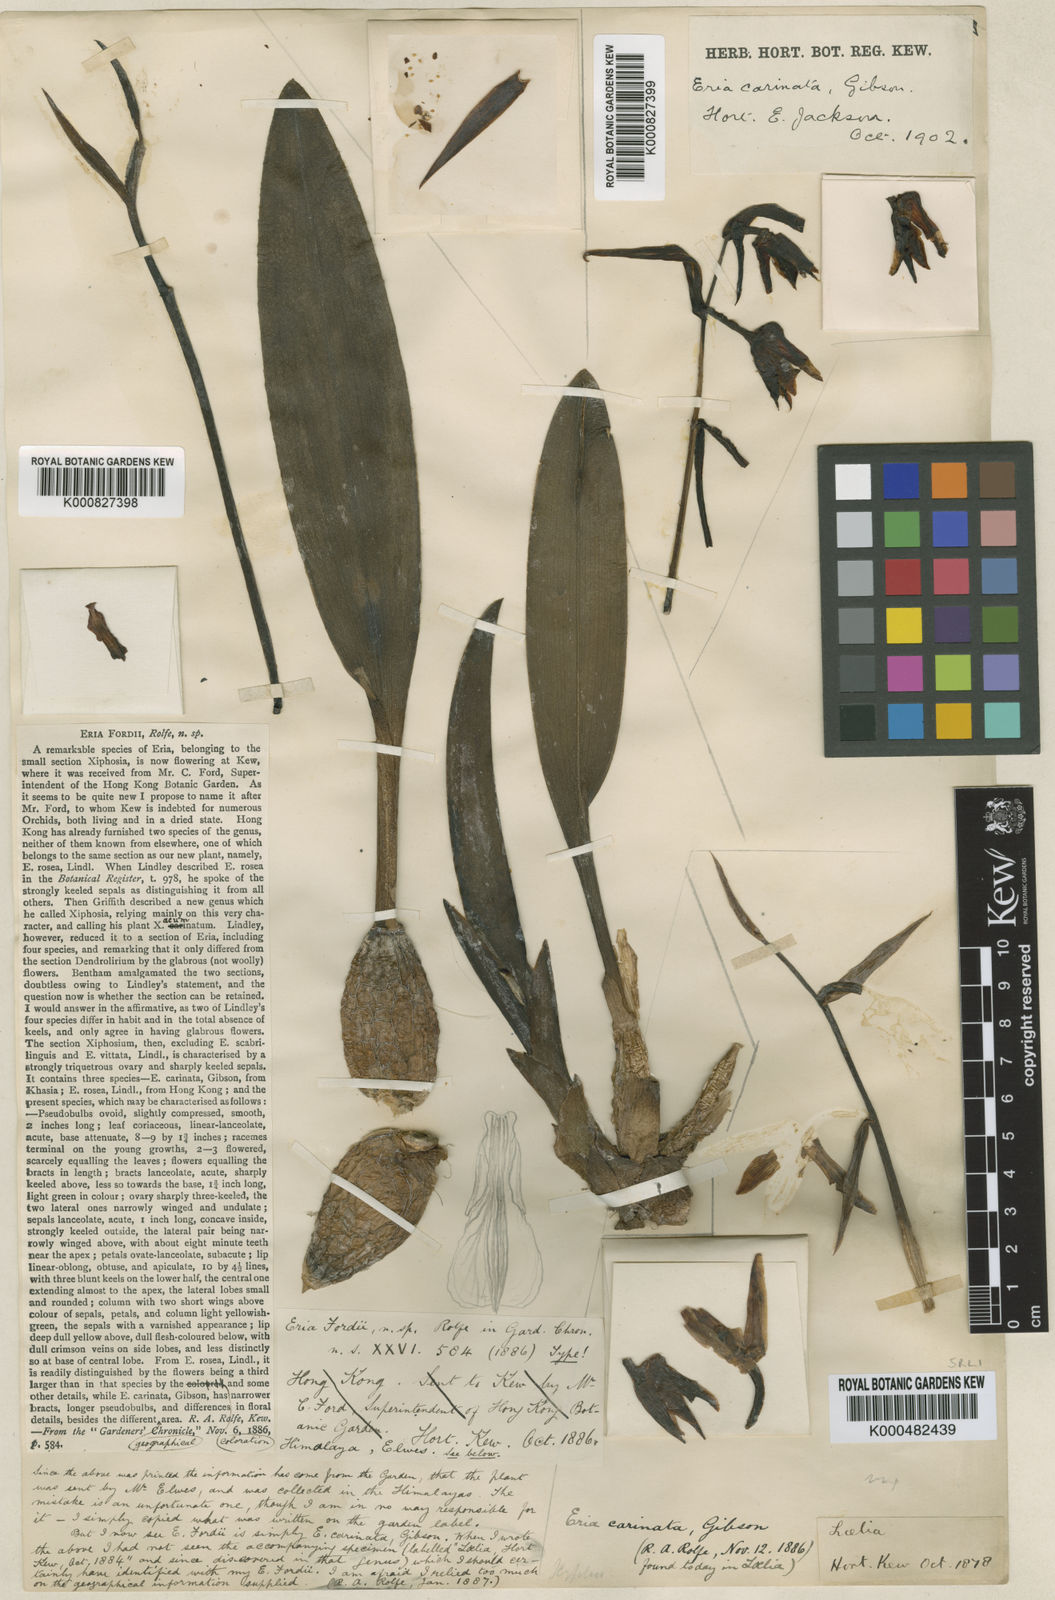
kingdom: Plantae
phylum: Tracheophyta
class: Liliopsida
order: Asparagales
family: Orchidaceae
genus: Eria
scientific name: Eria
